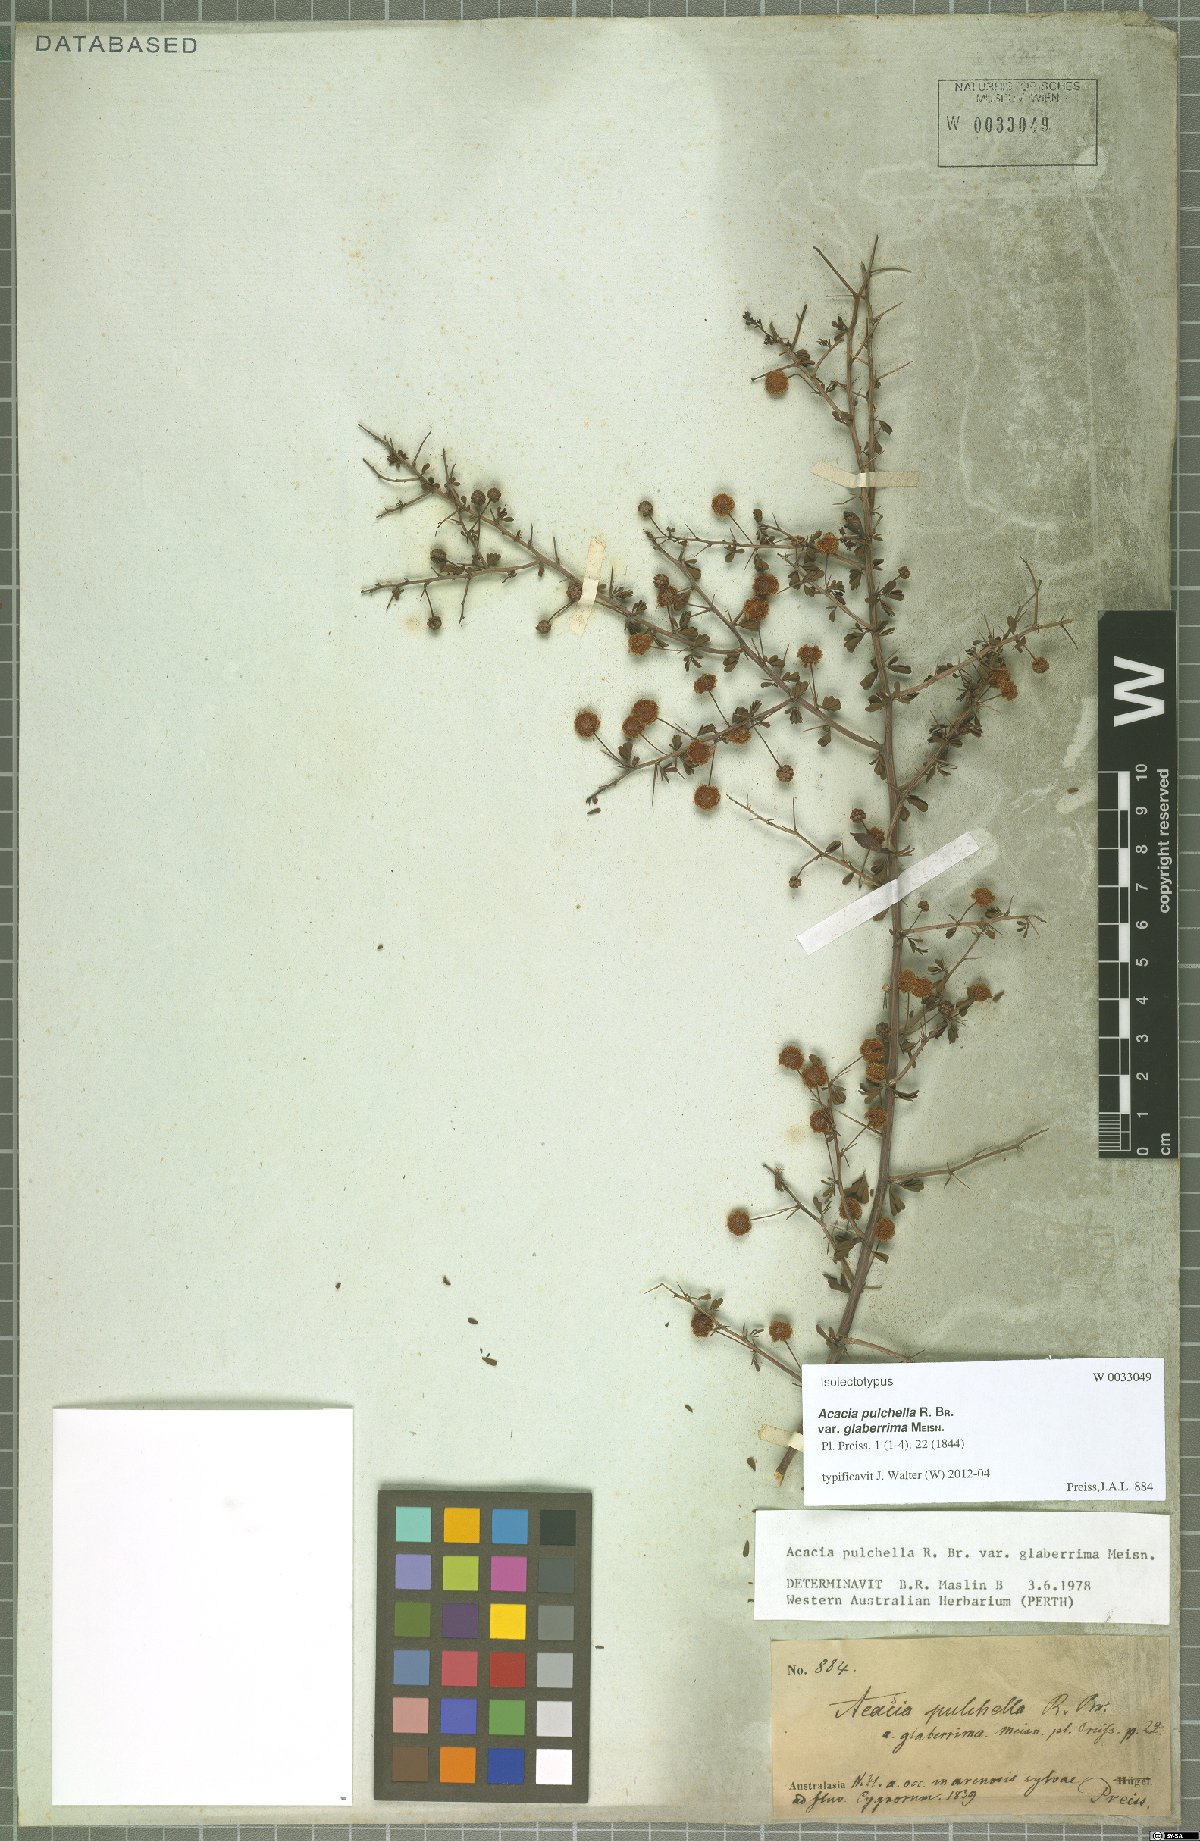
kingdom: Plantae
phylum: Tracheophyta
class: Magnoliopsida
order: Fabales
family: Fabaceae
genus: Acacia
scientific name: Acacia pulchella
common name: Prickly moses
